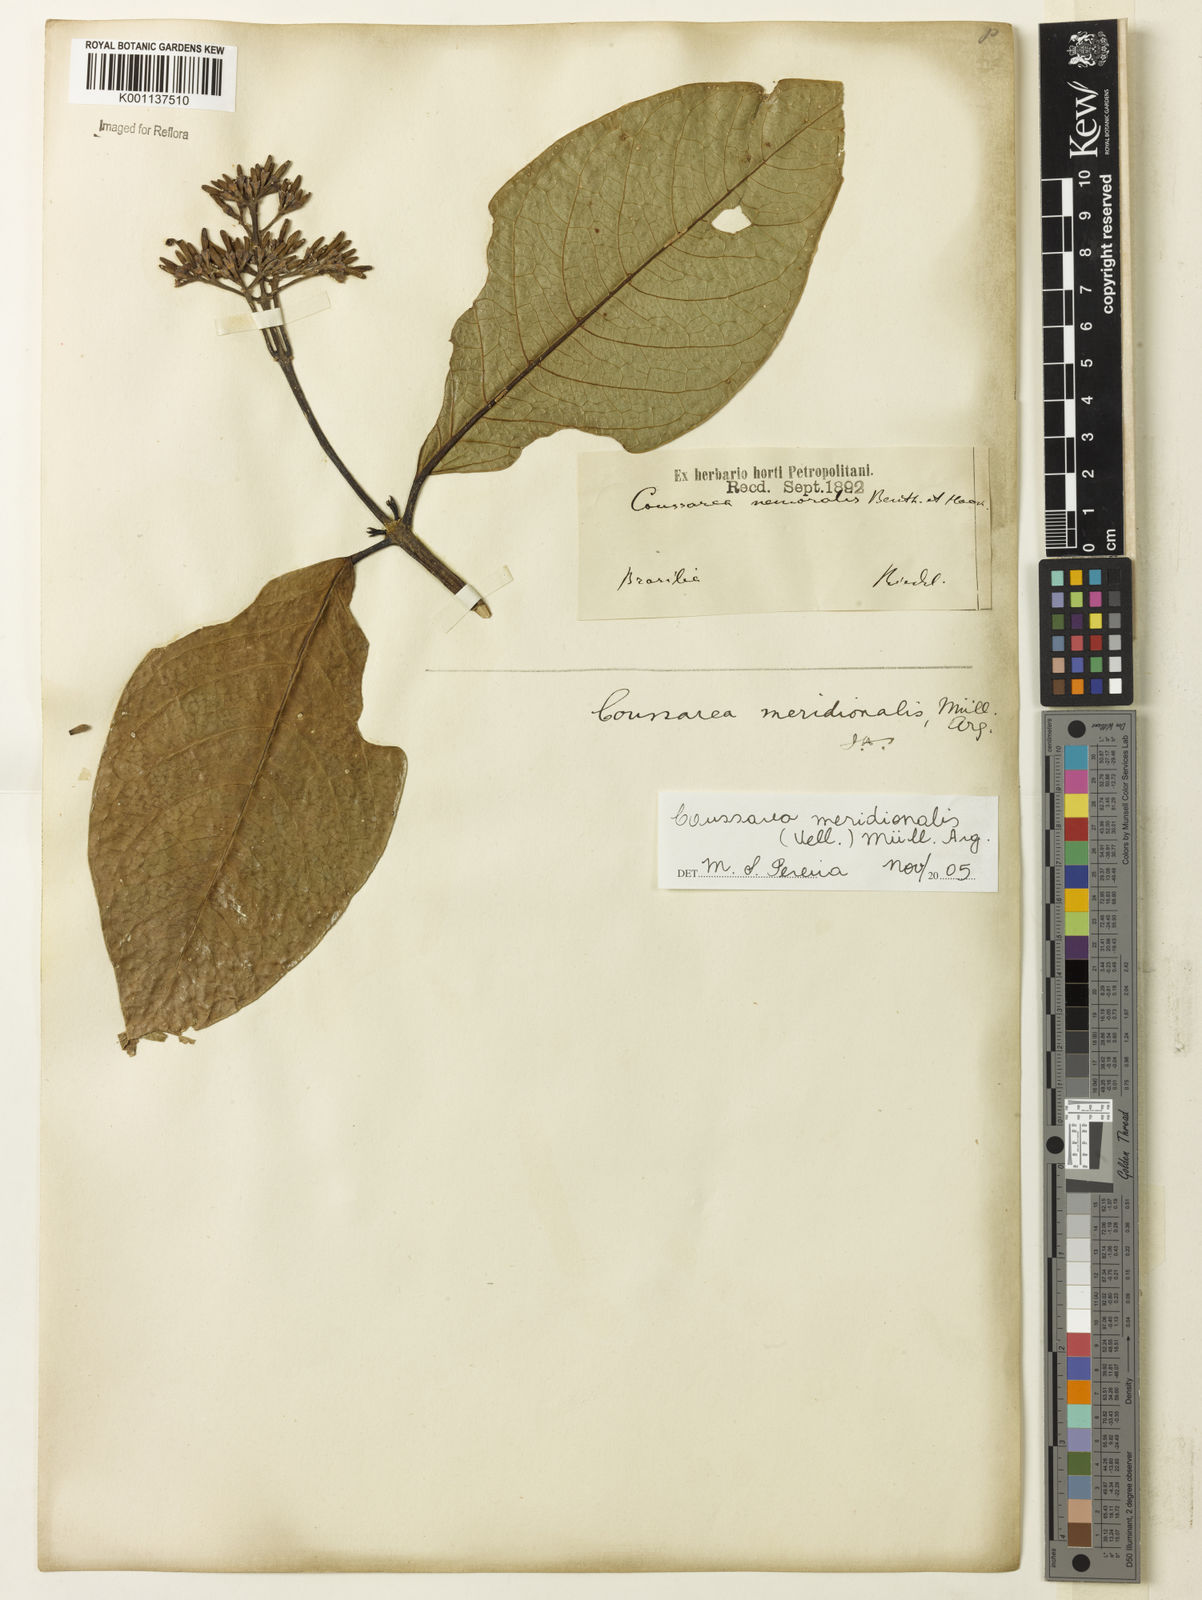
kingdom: Plantae
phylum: Tracheophyta
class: Magnoliopsida
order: Gentianales
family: Rubiaceae
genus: Coussarea
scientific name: Coussarea
